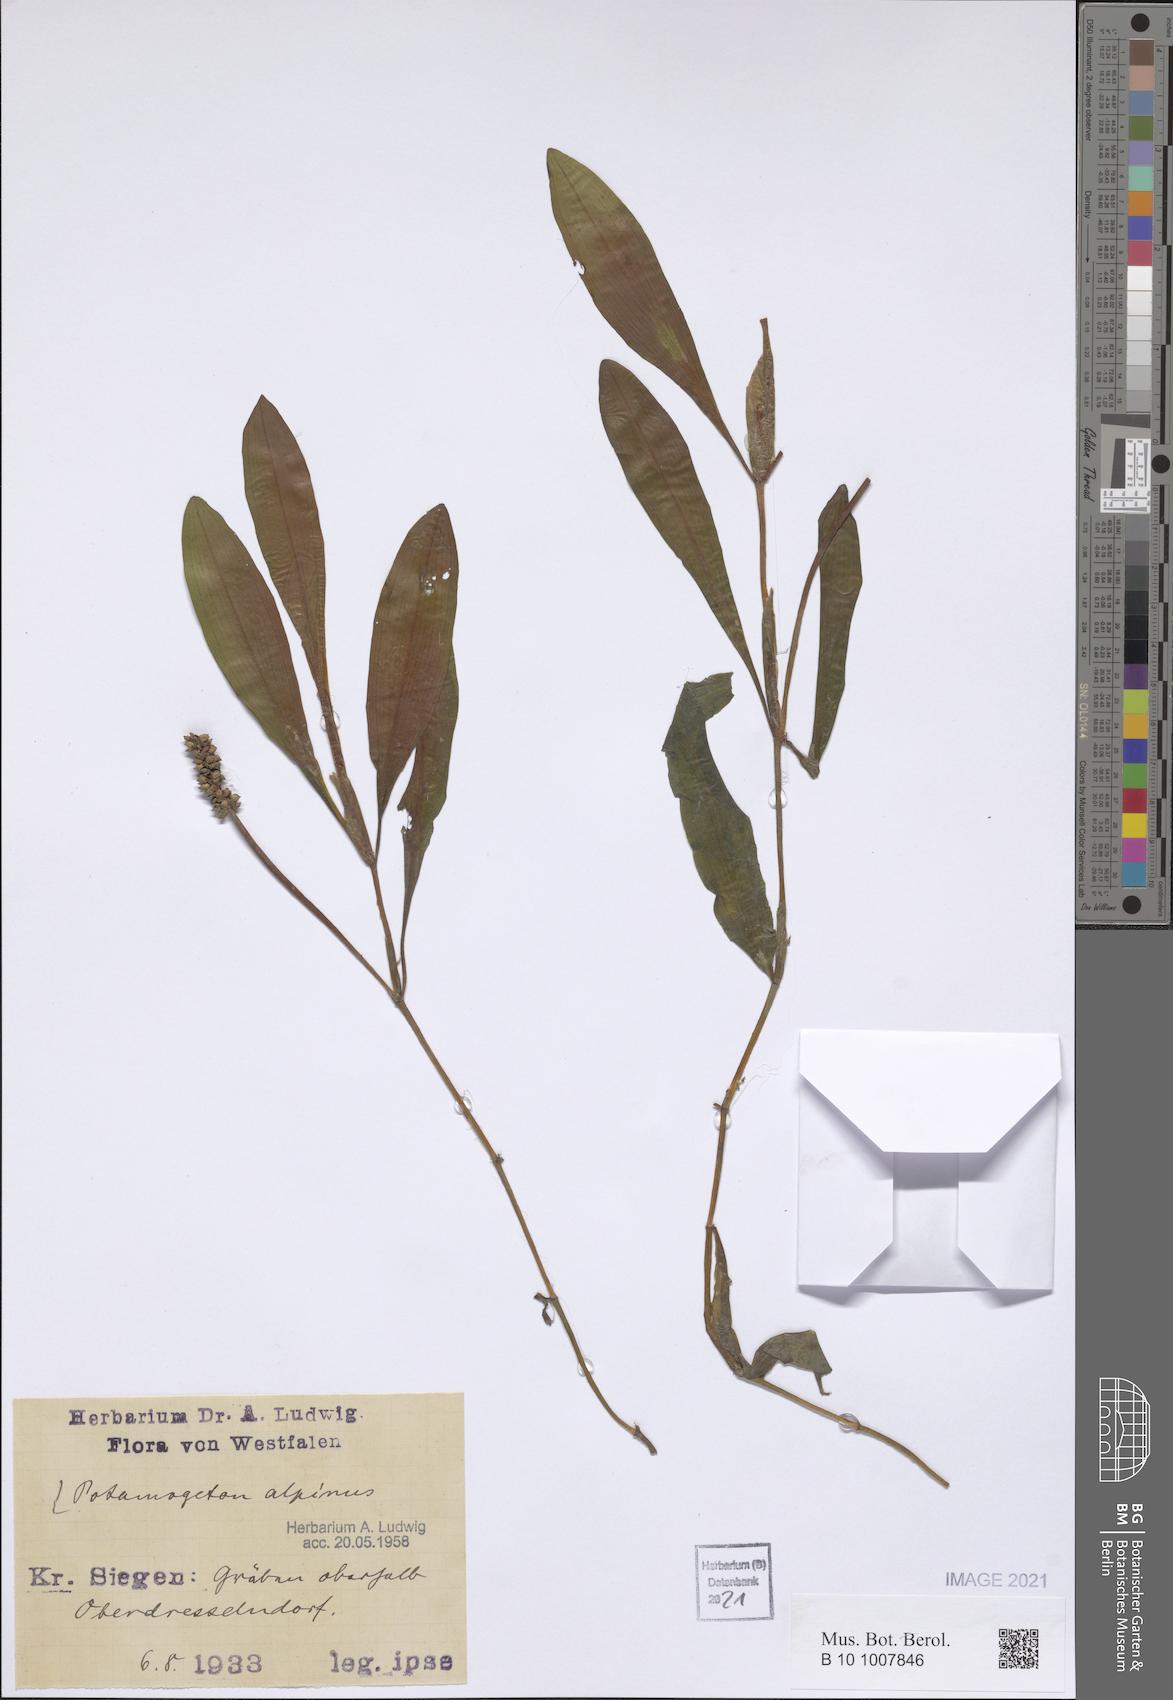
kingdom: Plantae
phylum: Tracheophyta
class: Liliopsida
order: Alismatales
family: Potamogetonaceae
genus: Potamogeton
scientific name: Potamogeton alpinus
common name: Red pondweed
